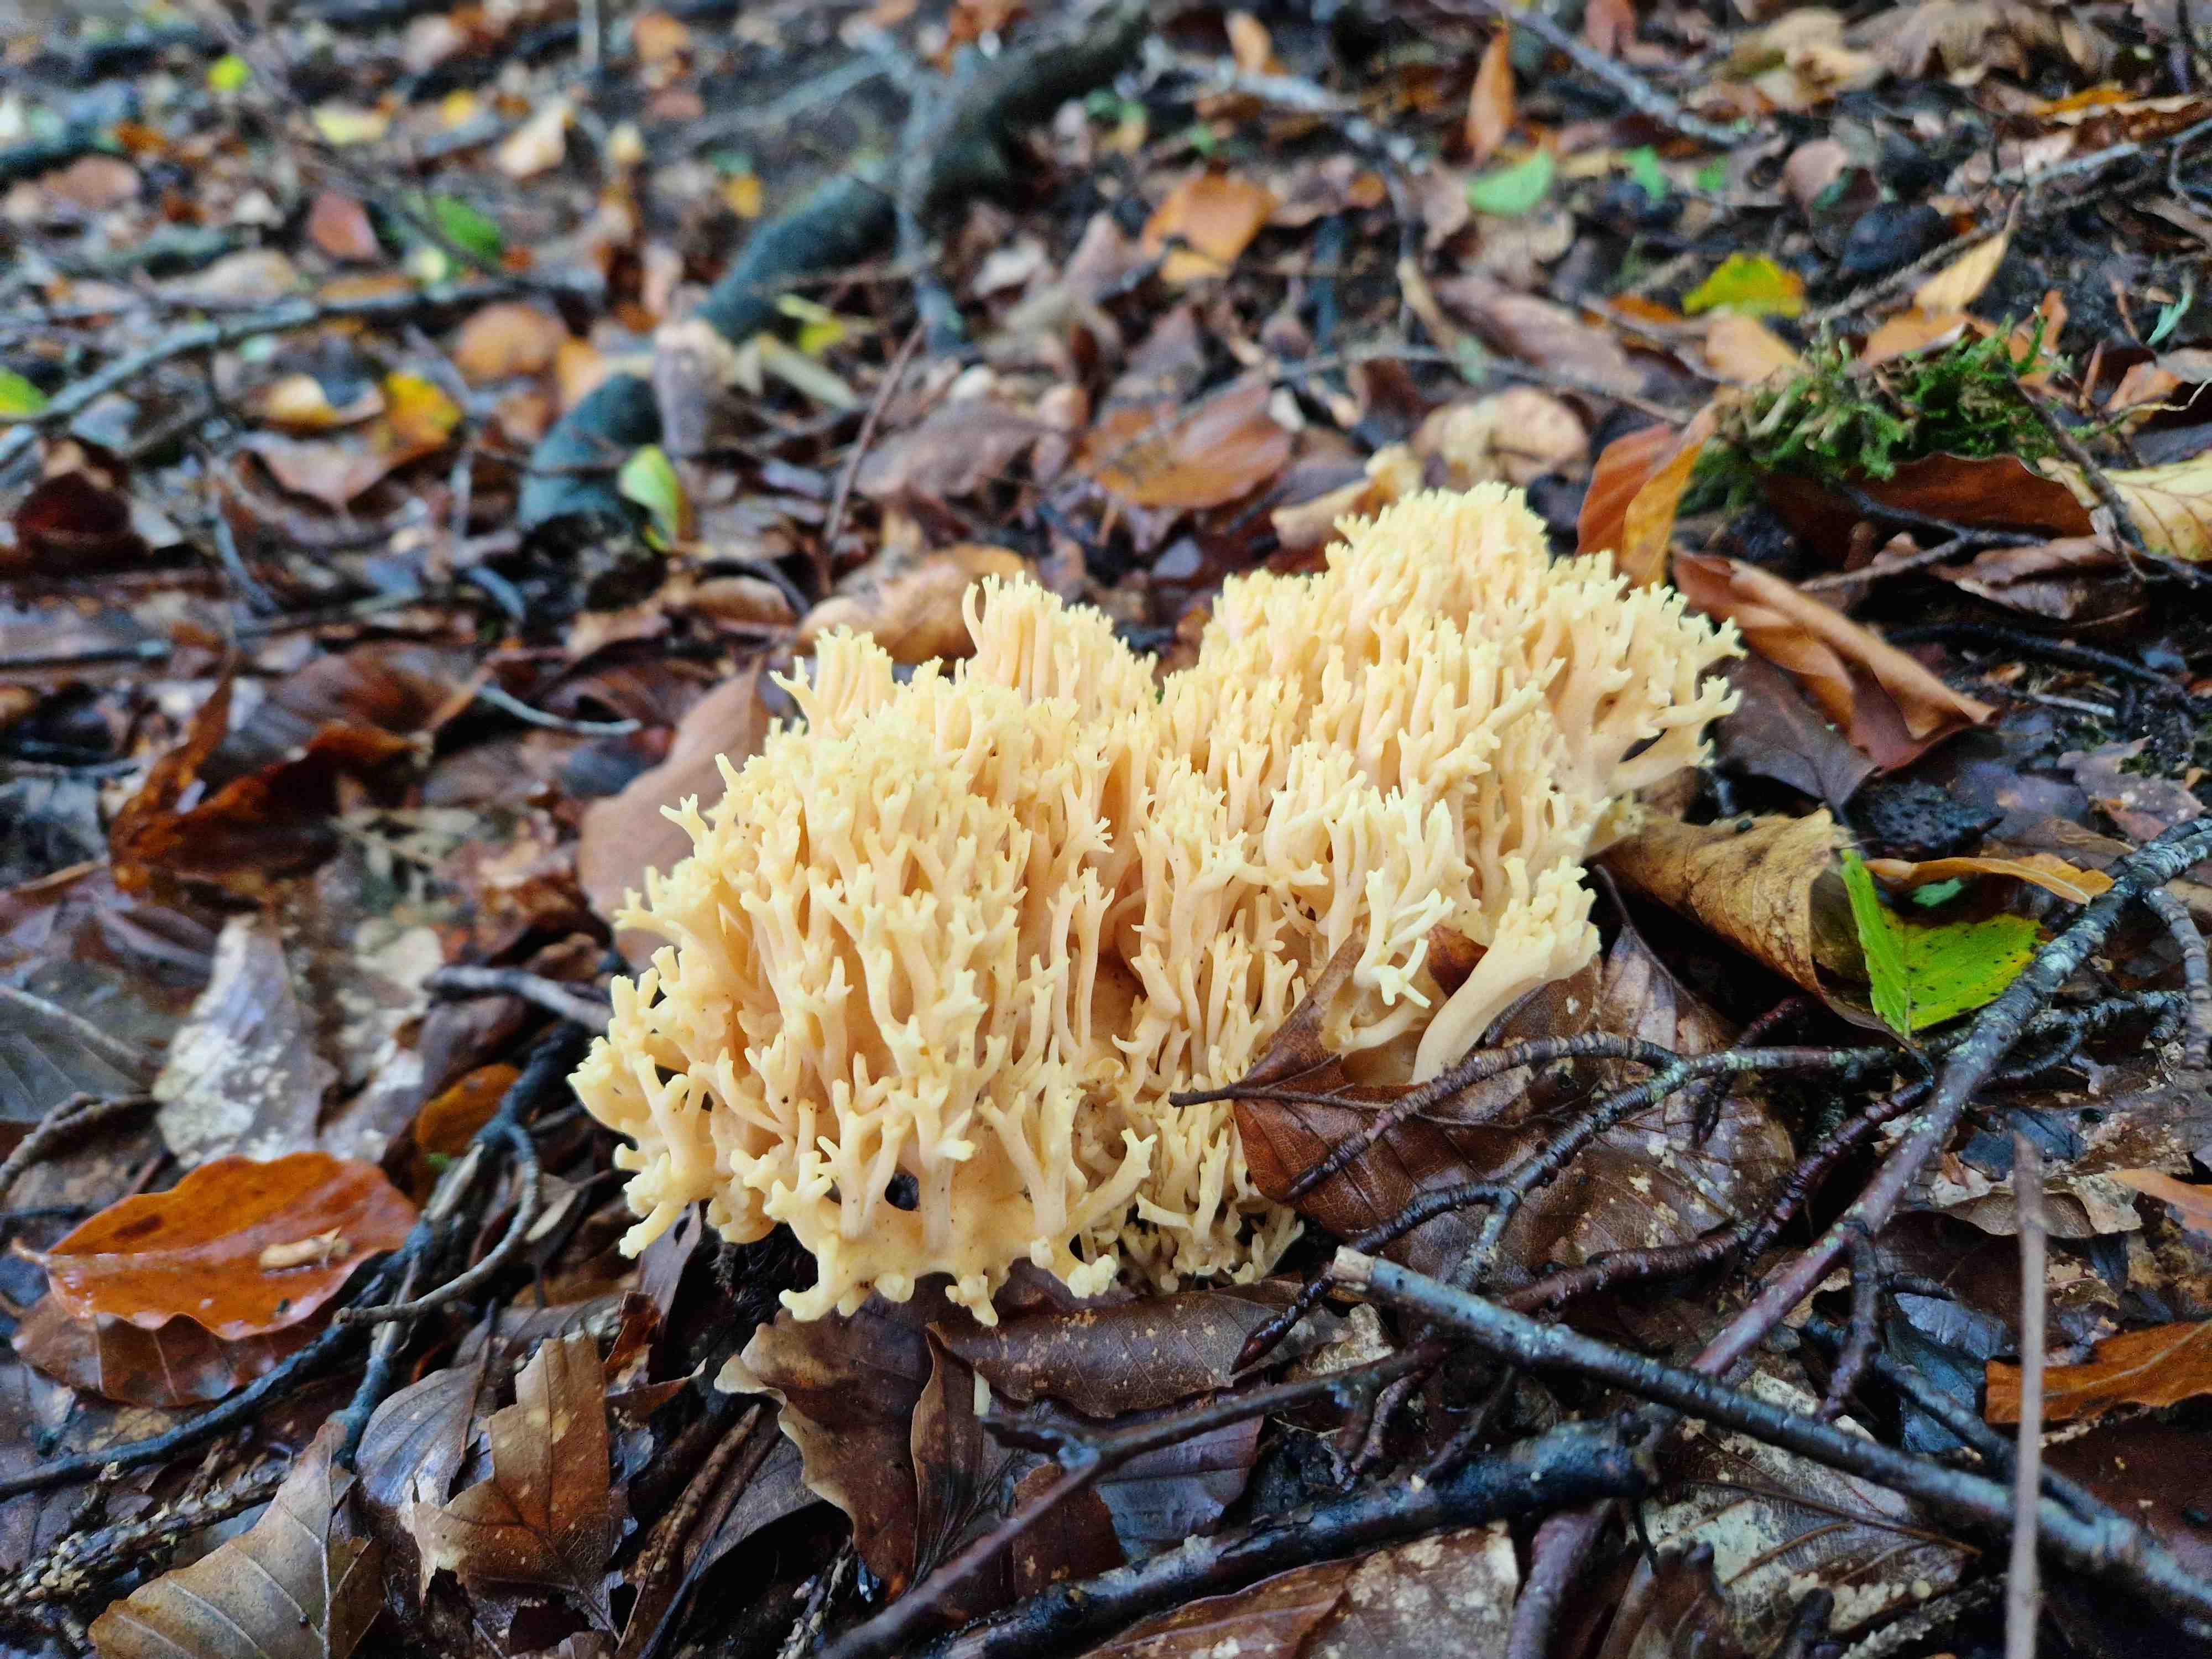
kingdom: Fungi
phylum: Basidiomycota
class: Agaricomycetes
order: Gomphales
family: Gomphaceae
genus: Ramaria
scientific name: Ramaria flavescens
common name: stor koralsvamp
